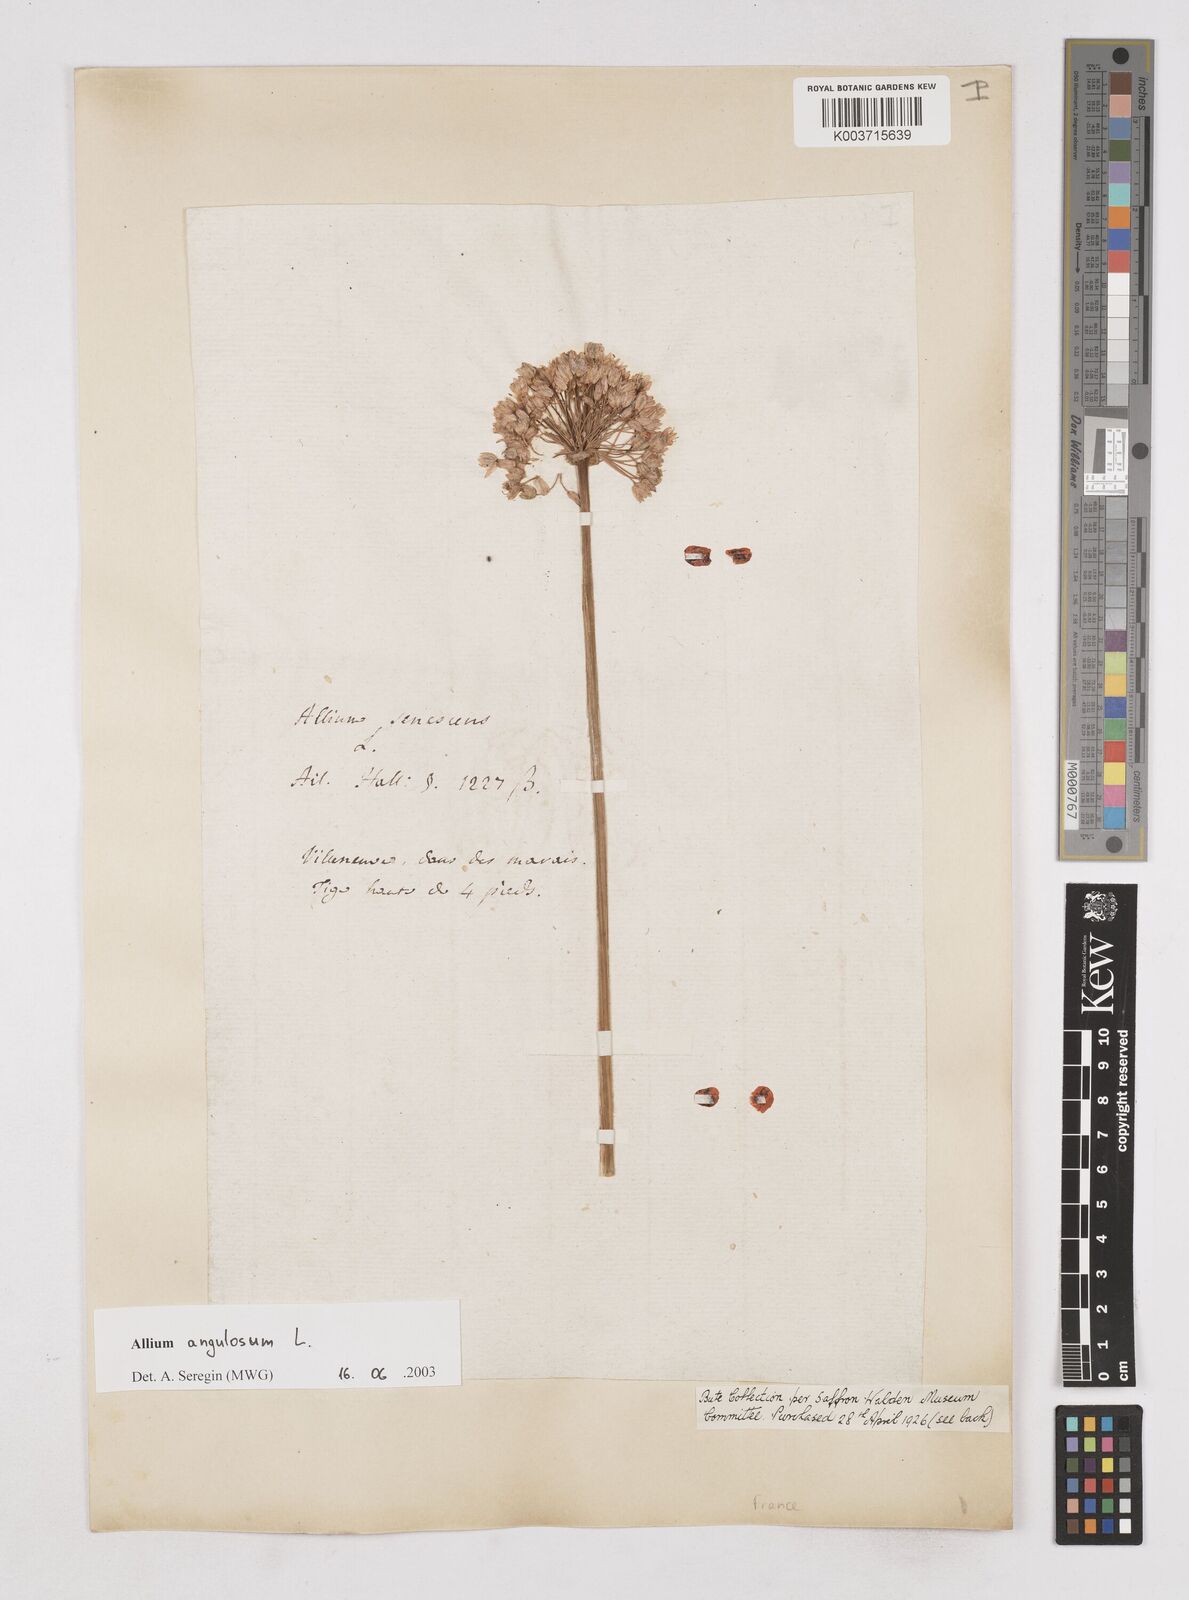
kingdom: Plantae
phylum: Tracheophyta
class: Liliopsida
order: Asparagales
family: Amaryllidaceae
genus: Allium
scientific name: Allium angulosum
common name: Mouse garlic
